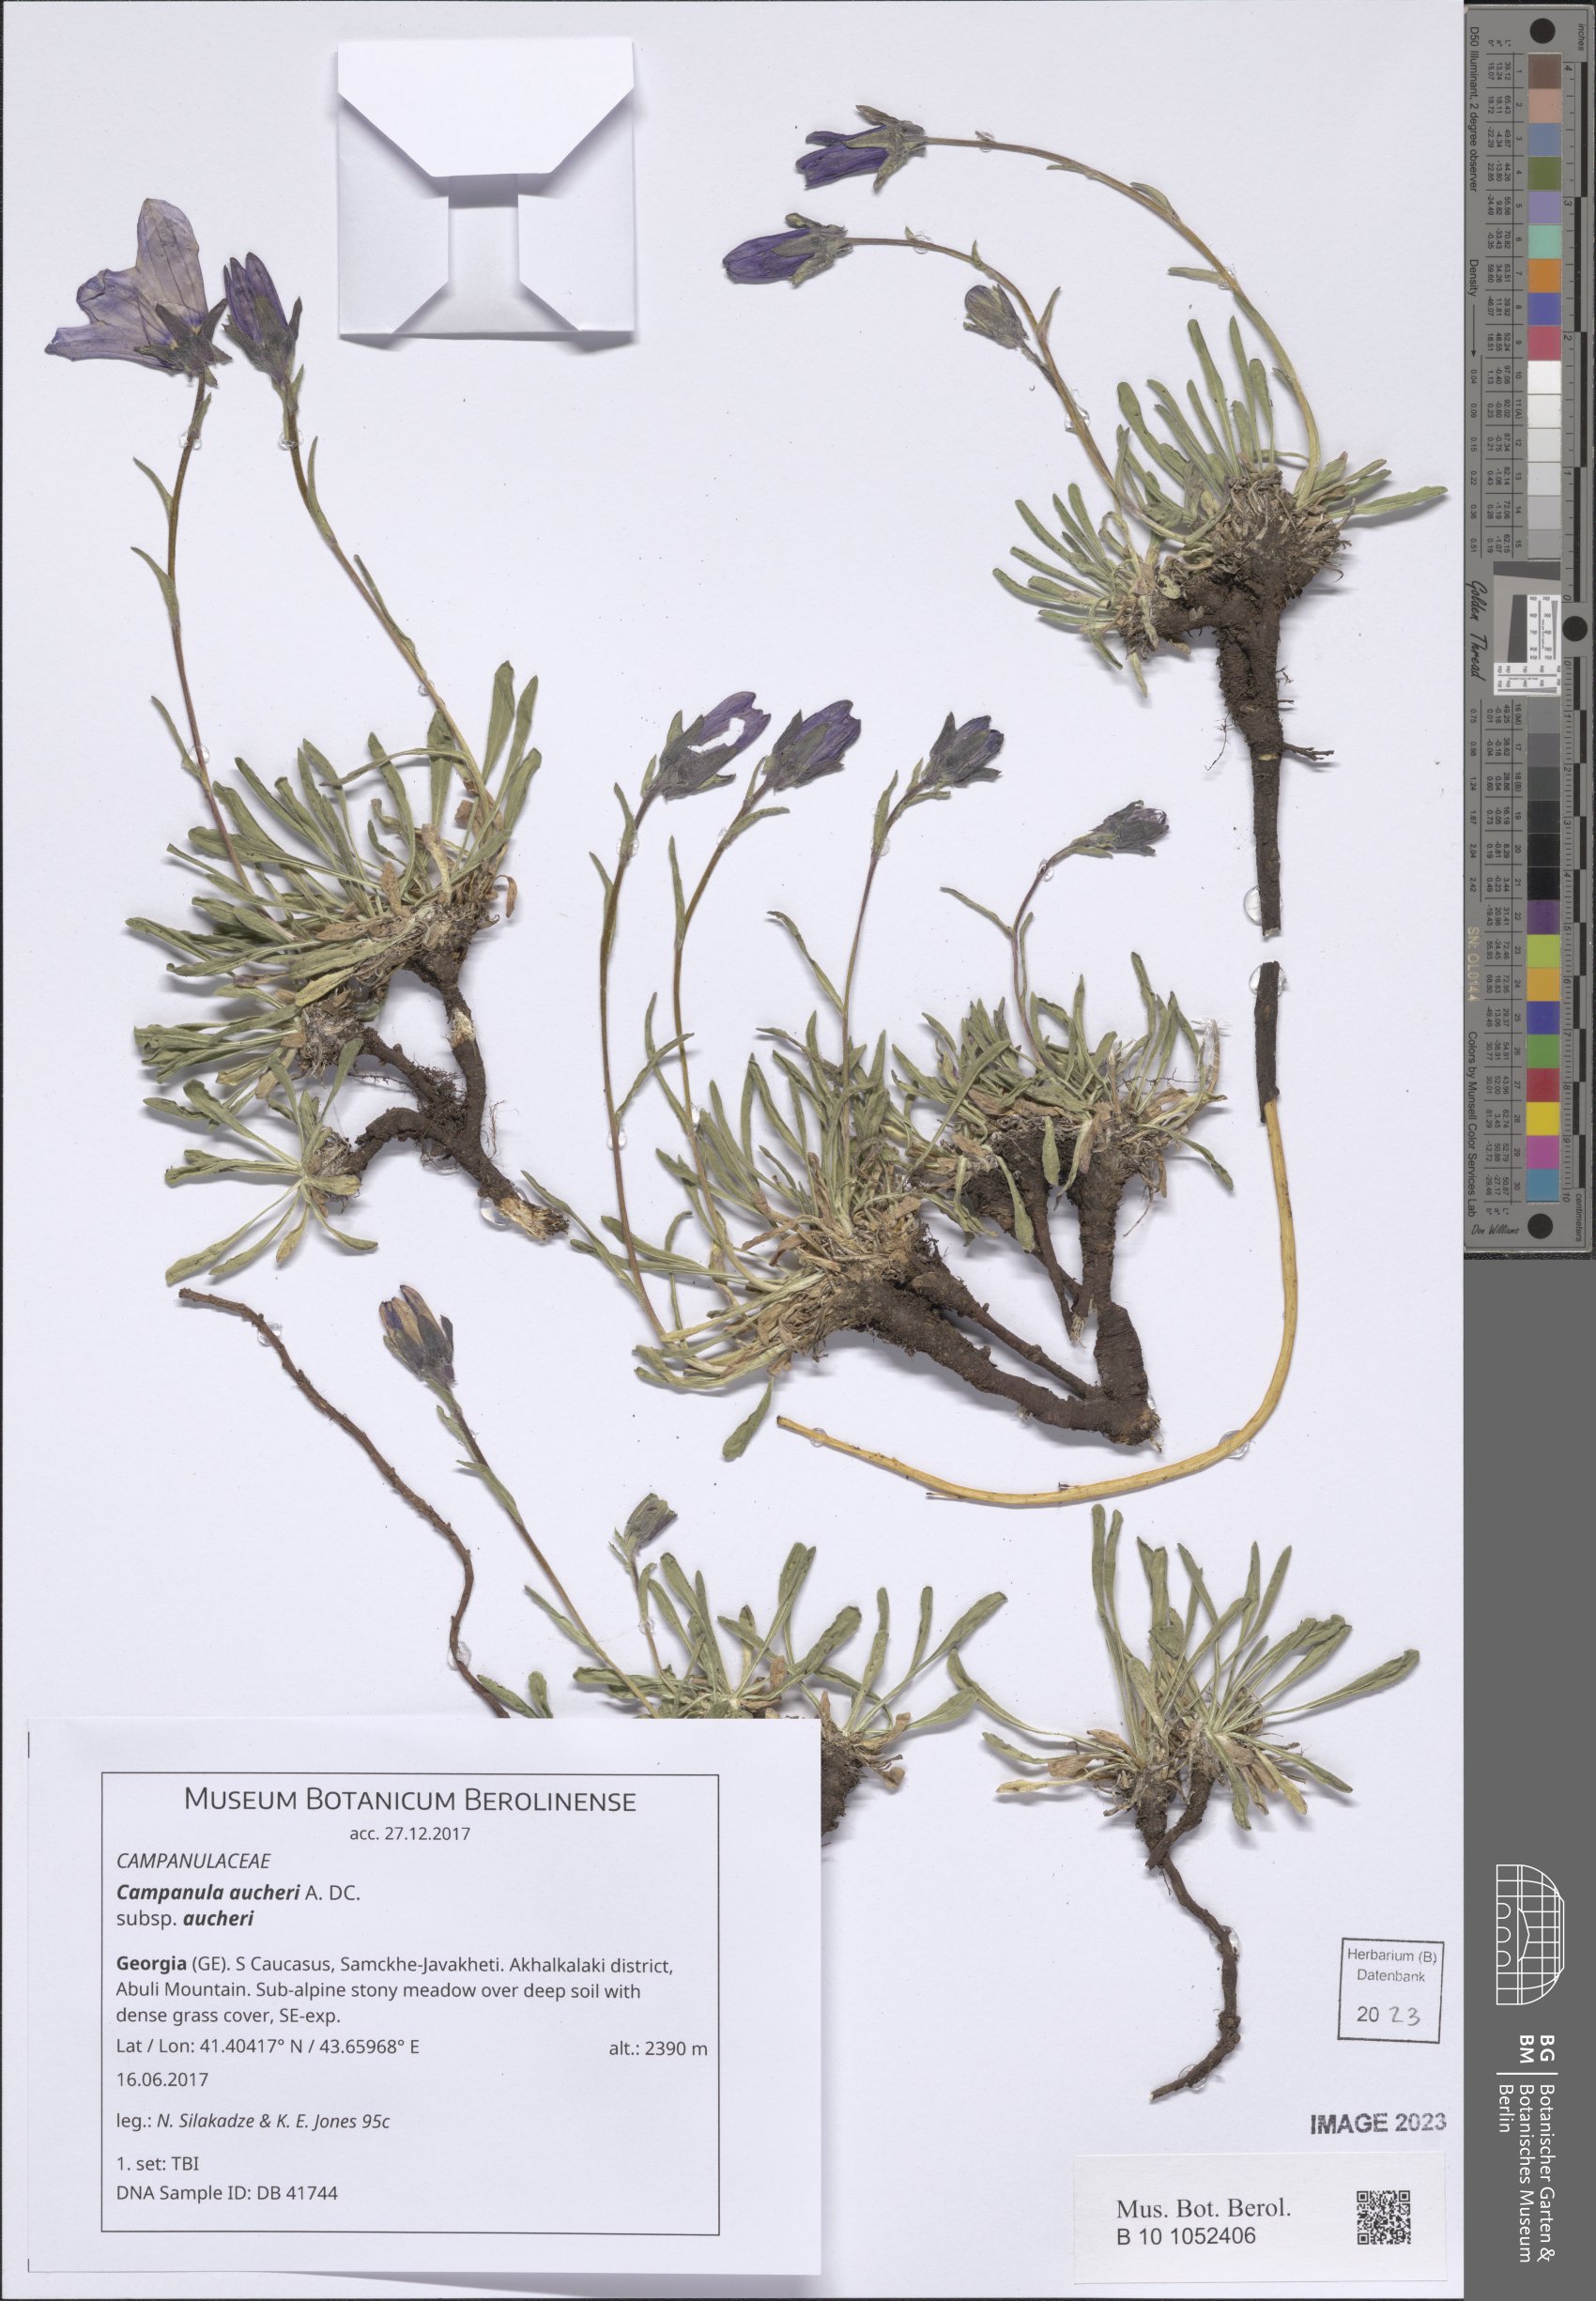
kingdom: Plantae
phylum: Tracheophyta
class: Magnoliopsida
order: Asterales
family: Campanulaceae
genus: Campanula
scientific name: Campanula saxifraga
